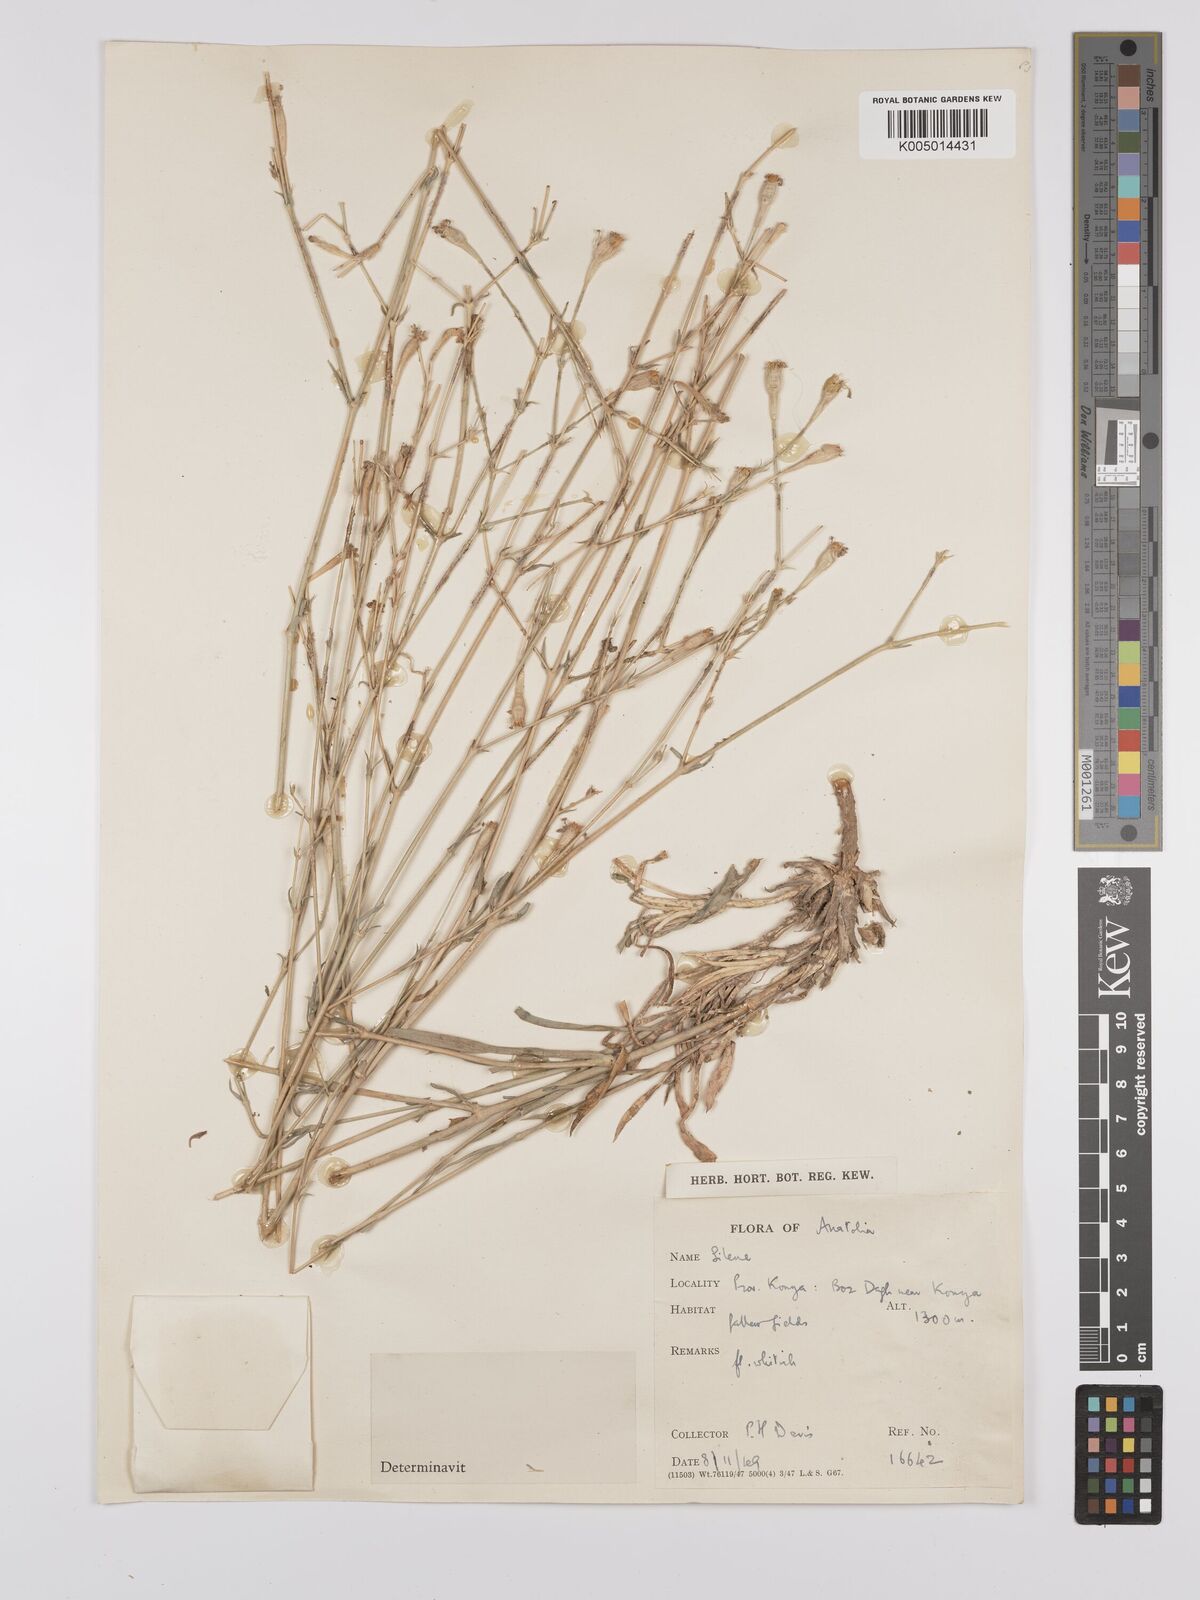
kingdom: Plantae
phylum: Tracheophyta
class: Magnoliopsida
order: Caryophyllales
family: Caryophyllaceae
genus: Silene
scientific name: Silene
